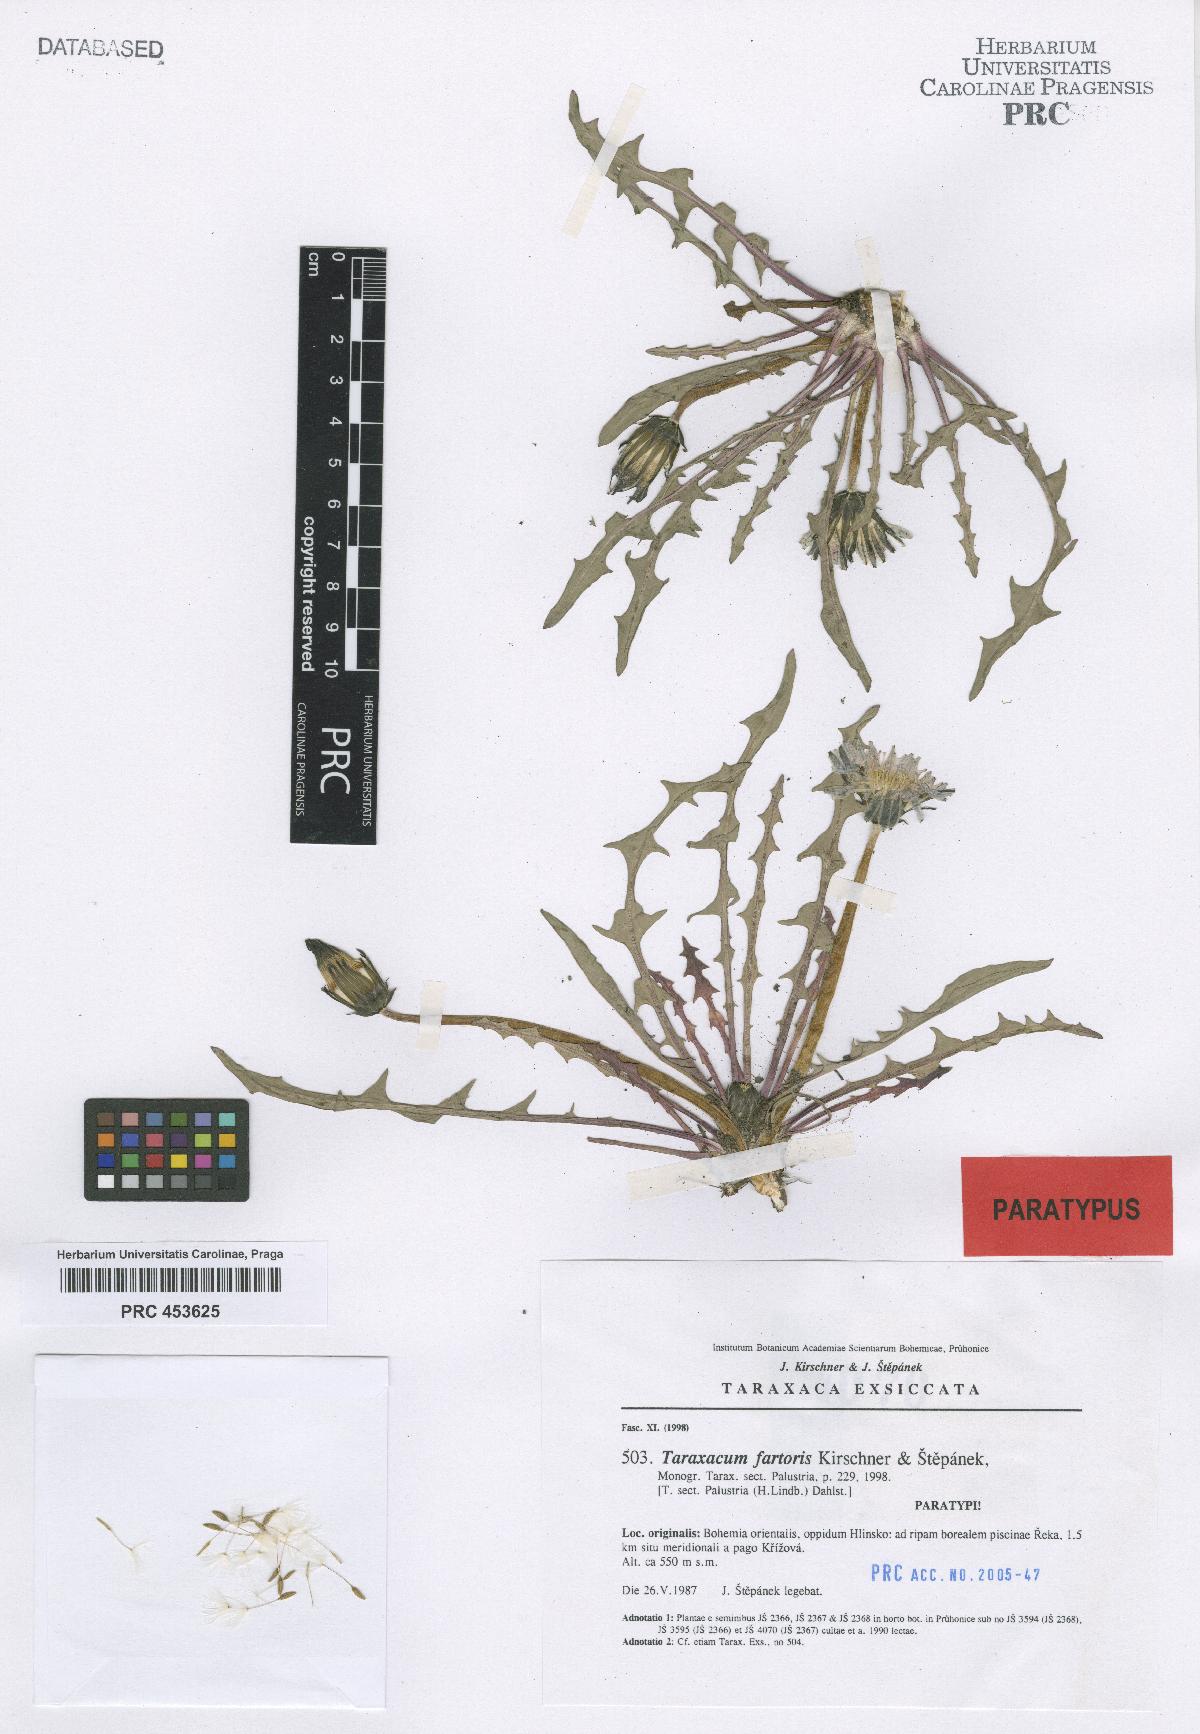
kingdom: Plantae
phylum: Tracheophyta
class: Magnoliopsida
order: Asterales
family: Asteraceae
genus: Taraxacum
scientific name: Taraxacum fartoris
